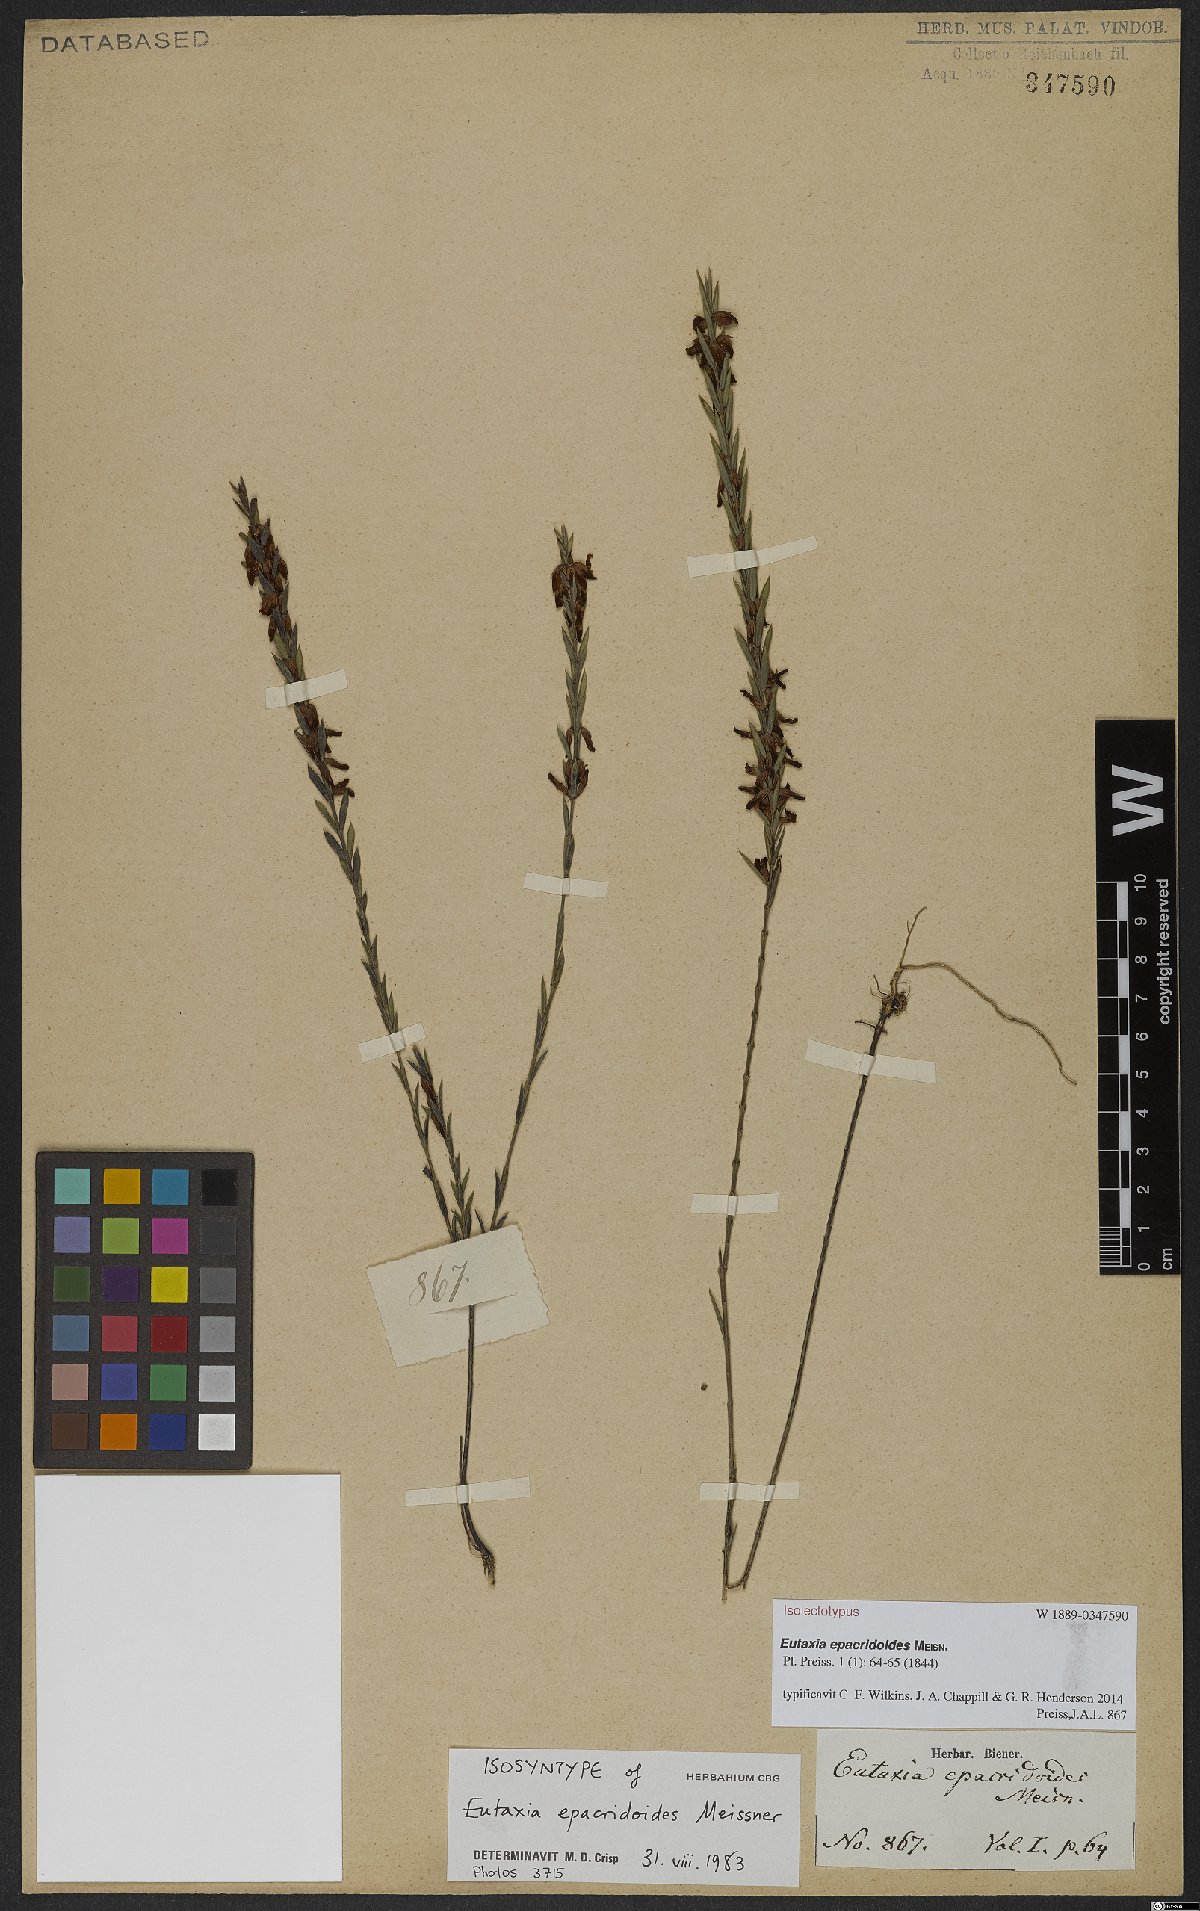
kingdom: Plantae
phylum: Tracheophyta
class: Magnoliopsida
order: Fabales
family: Fabaceae
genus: Eutaxia
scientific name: Eutaxia epacridoides
